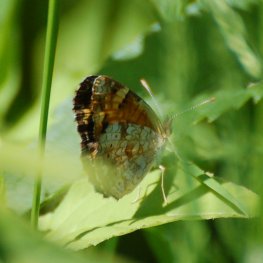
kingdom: Animalia
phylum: Arthropoda
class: Insecta
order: Lepidoptera
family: Nymphalidae
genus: Phyciodes
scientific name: Phyciodes tharos
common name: Northern Crescent
